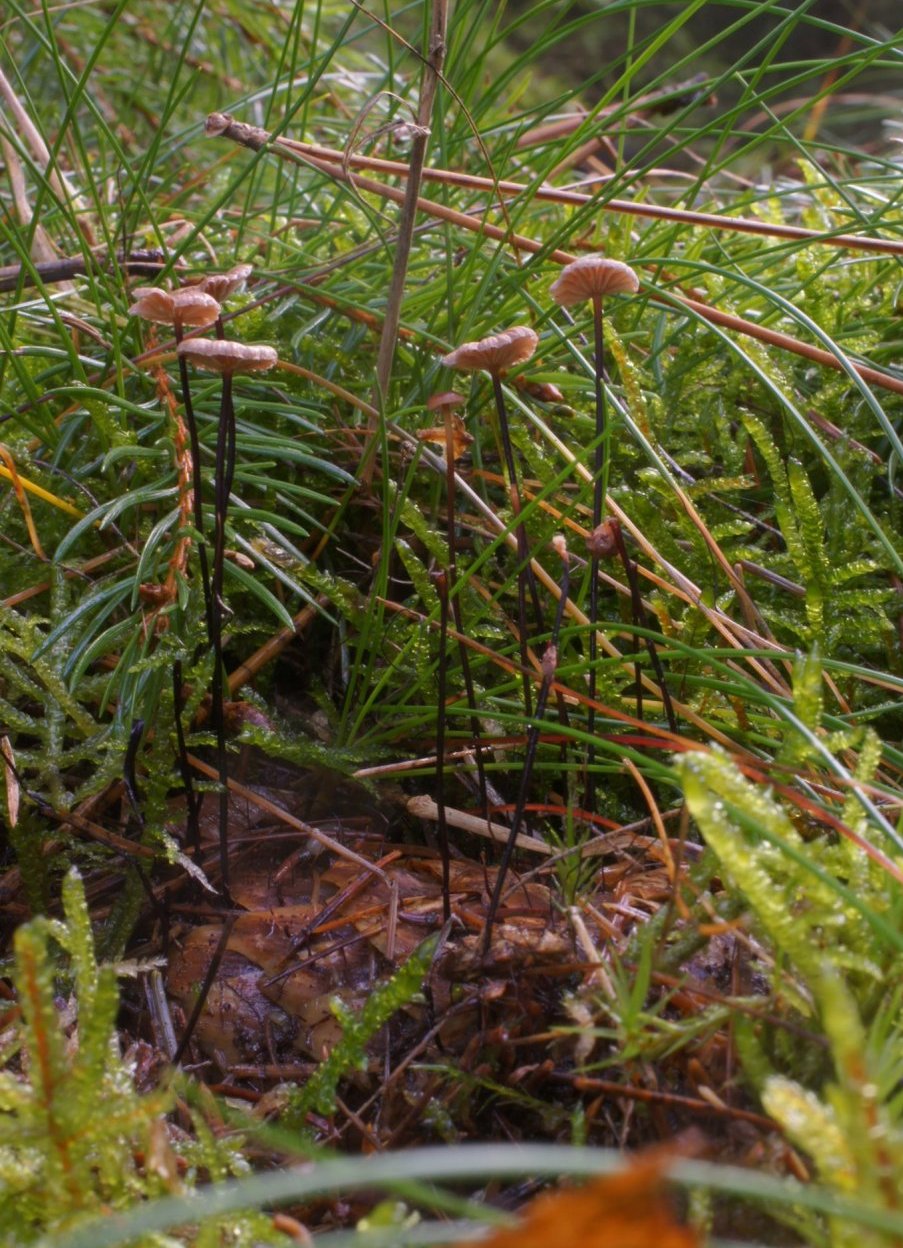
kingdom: Fungi
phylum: Basidiomycota
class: Agaricomycetes
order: Agaricales
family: Omphalotaceae
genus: Gymnopus
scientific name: Gymnopus androsaceus
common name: trådstokket fladhat
